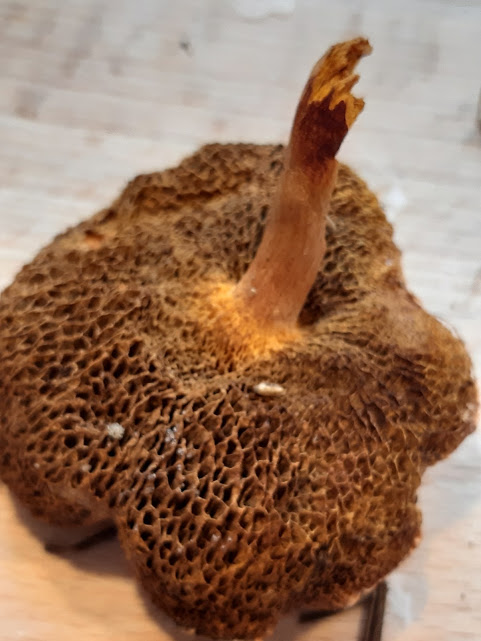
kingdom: Fungi
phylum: Basidiomycota
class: Agaricomycetes
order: Boletales
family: Boletaceae
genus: Chalciporus
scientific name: Chalciporus piperatus
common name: peberrørhat
